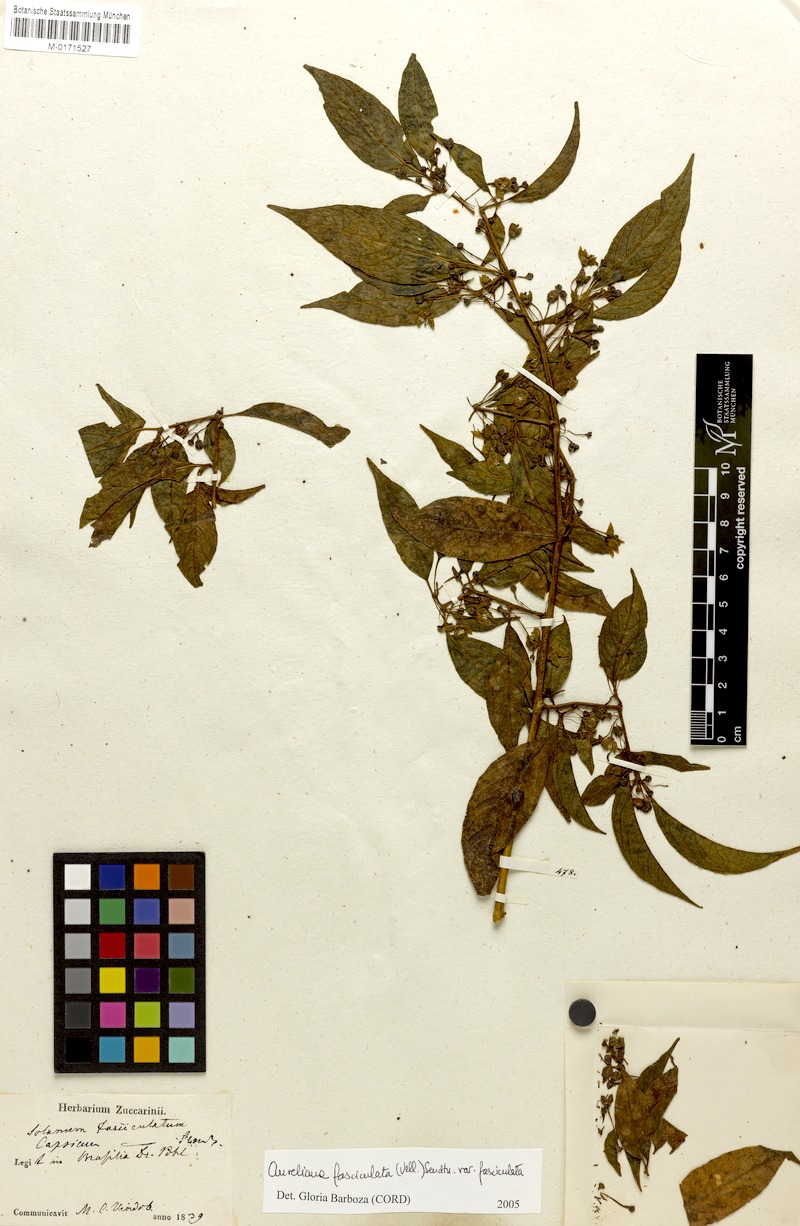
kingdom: Plantae
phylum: Tracheophyta
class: Magnoliopsida
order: Solanales
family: Solanaceae
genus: Athenaea
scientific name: Athenaea fasciculata
